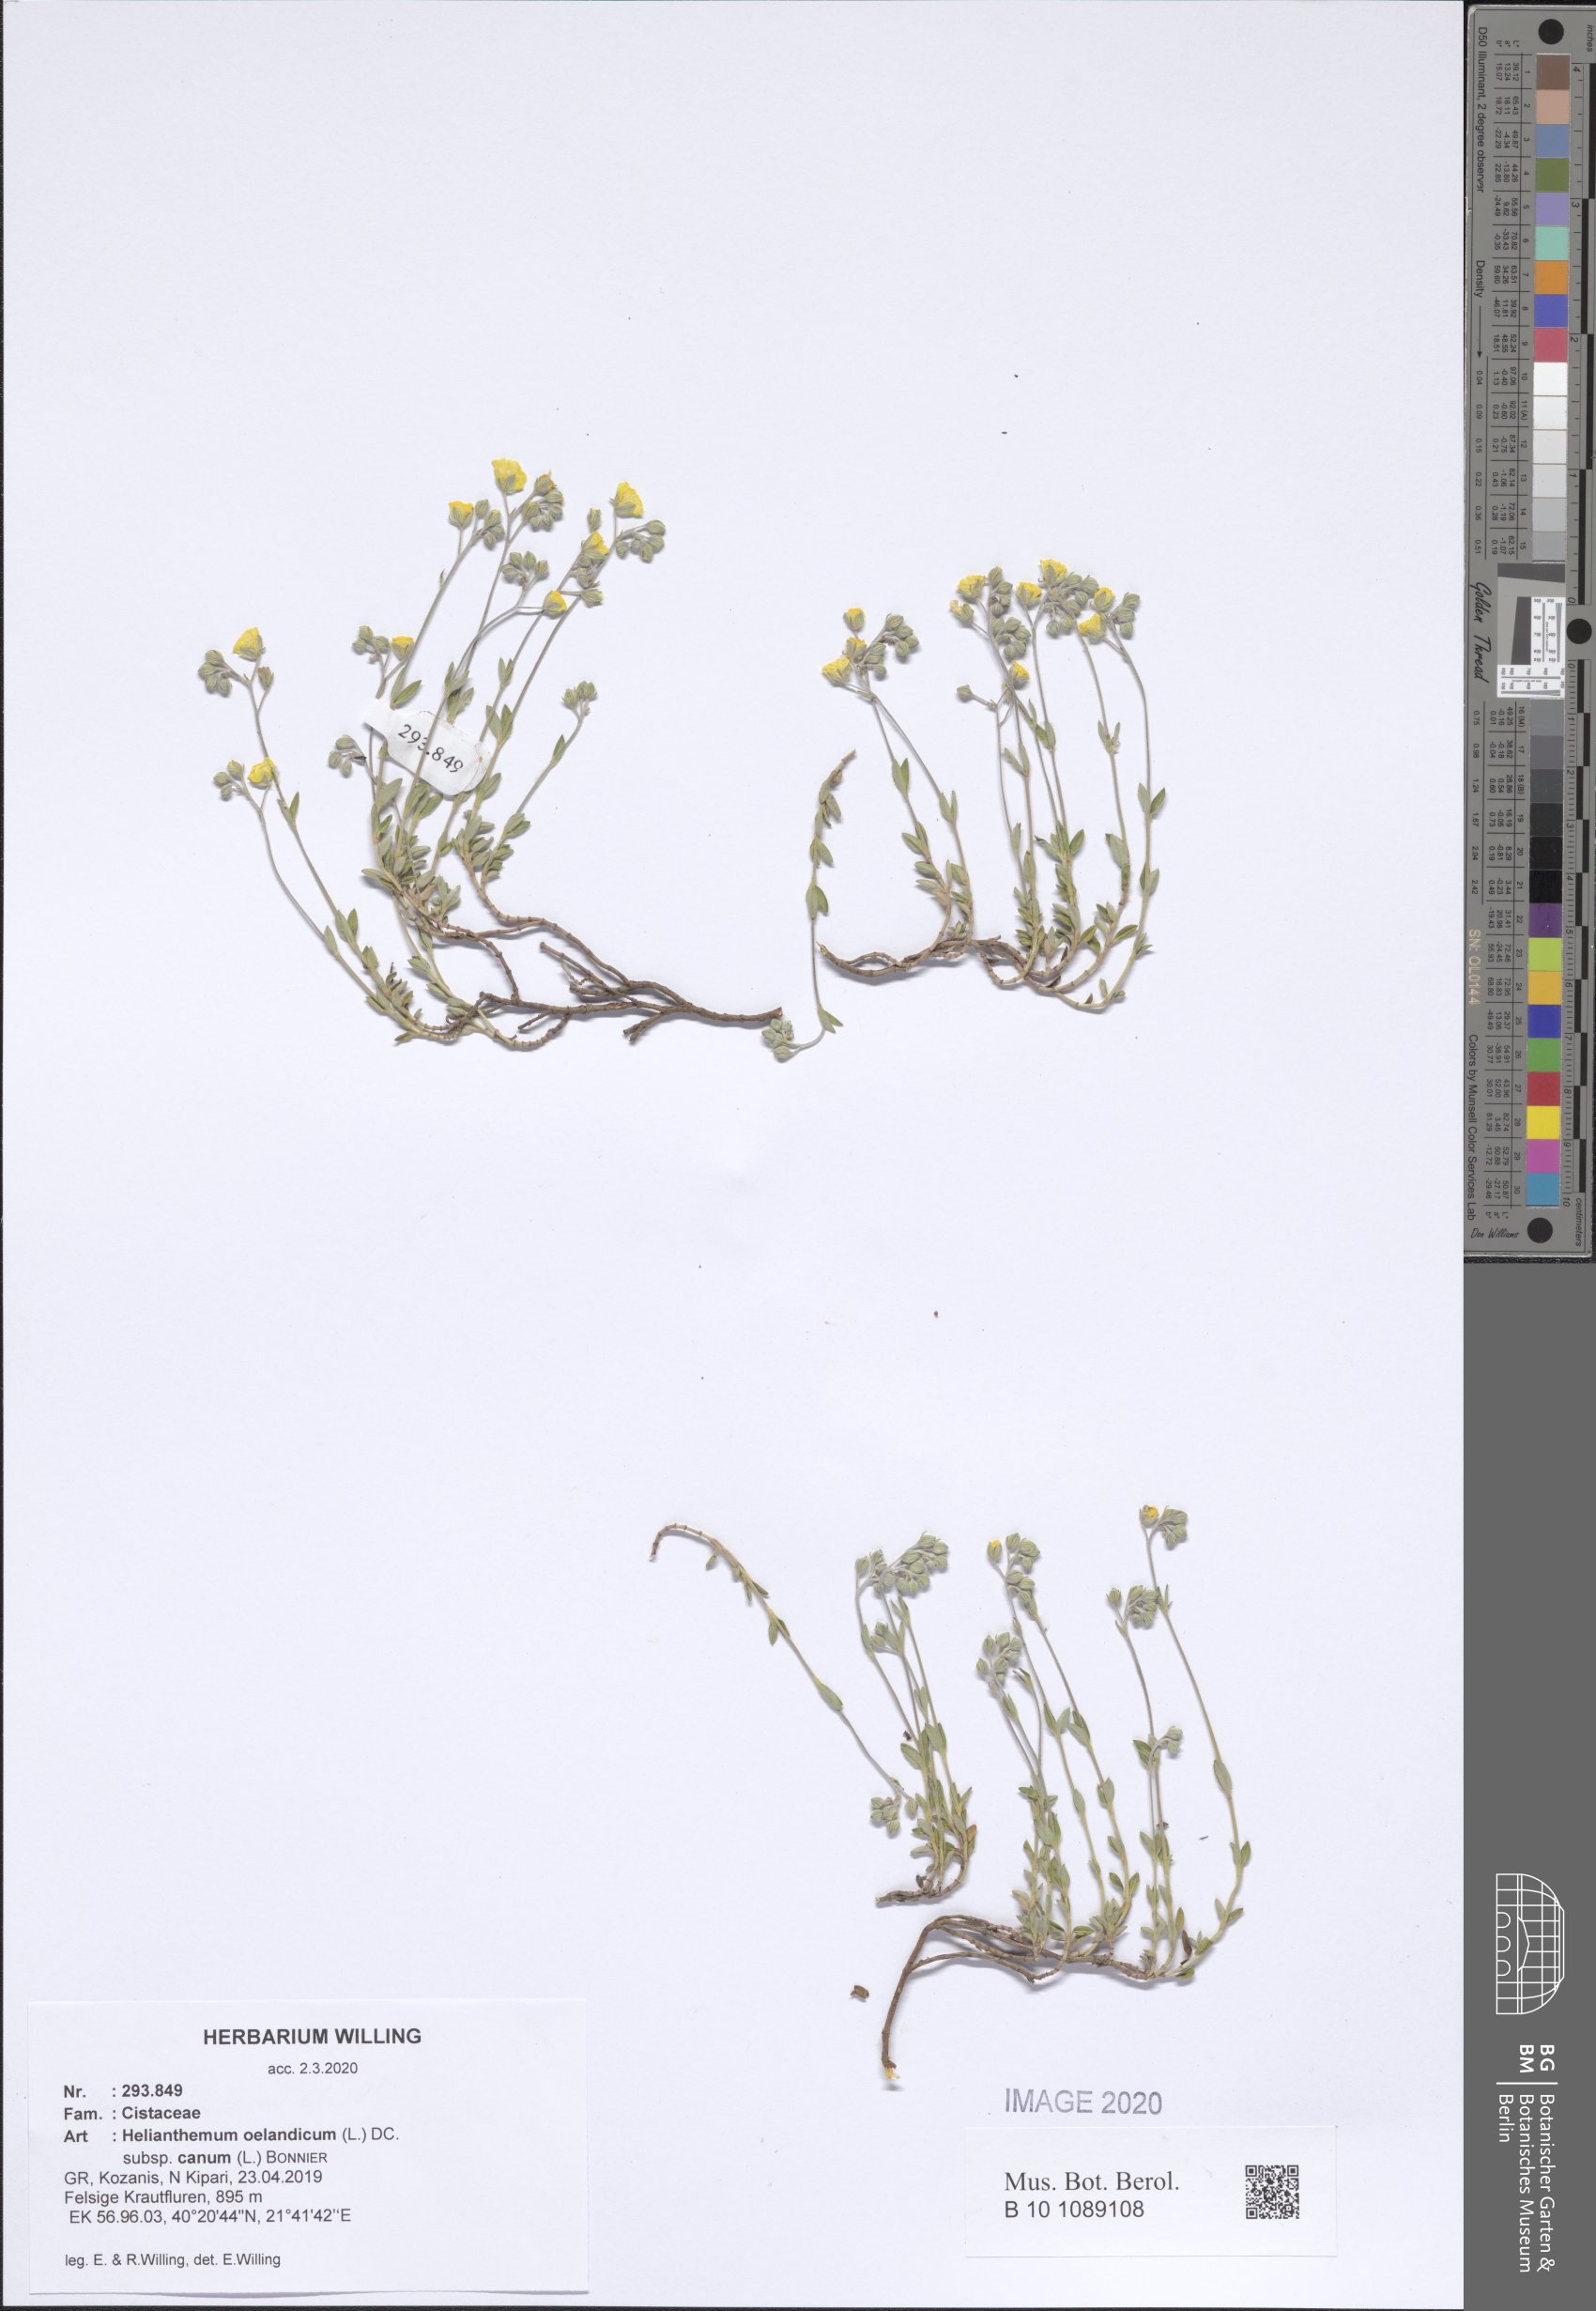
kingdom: Plantae
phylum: Tracheophyta
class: Magnoliopsida
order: Malvales
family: Cistaceae
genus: Helianthemum
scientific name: Helianthemum canum
